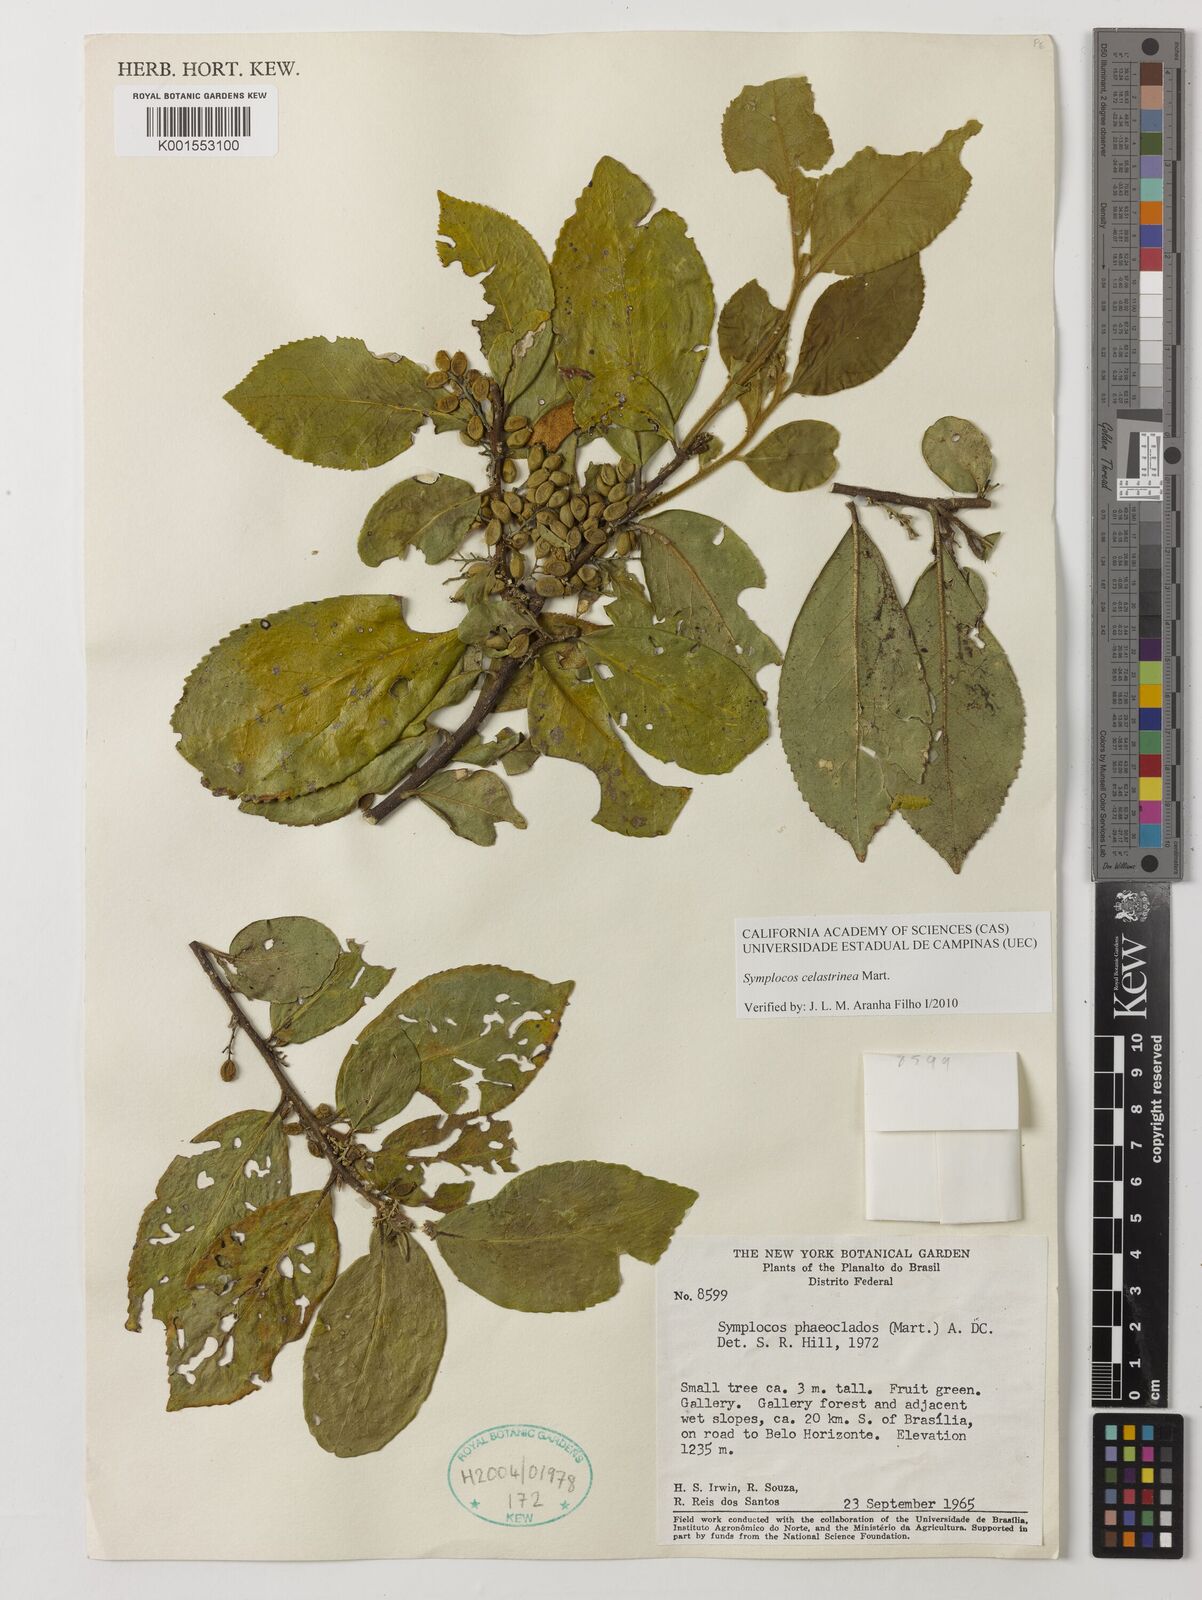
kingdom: Plantae
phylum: Tracheophyta
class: Magnoliopsida
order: Ericales
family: Symplocaceae
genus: Symplocos
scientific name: Symplocos celastrinea
